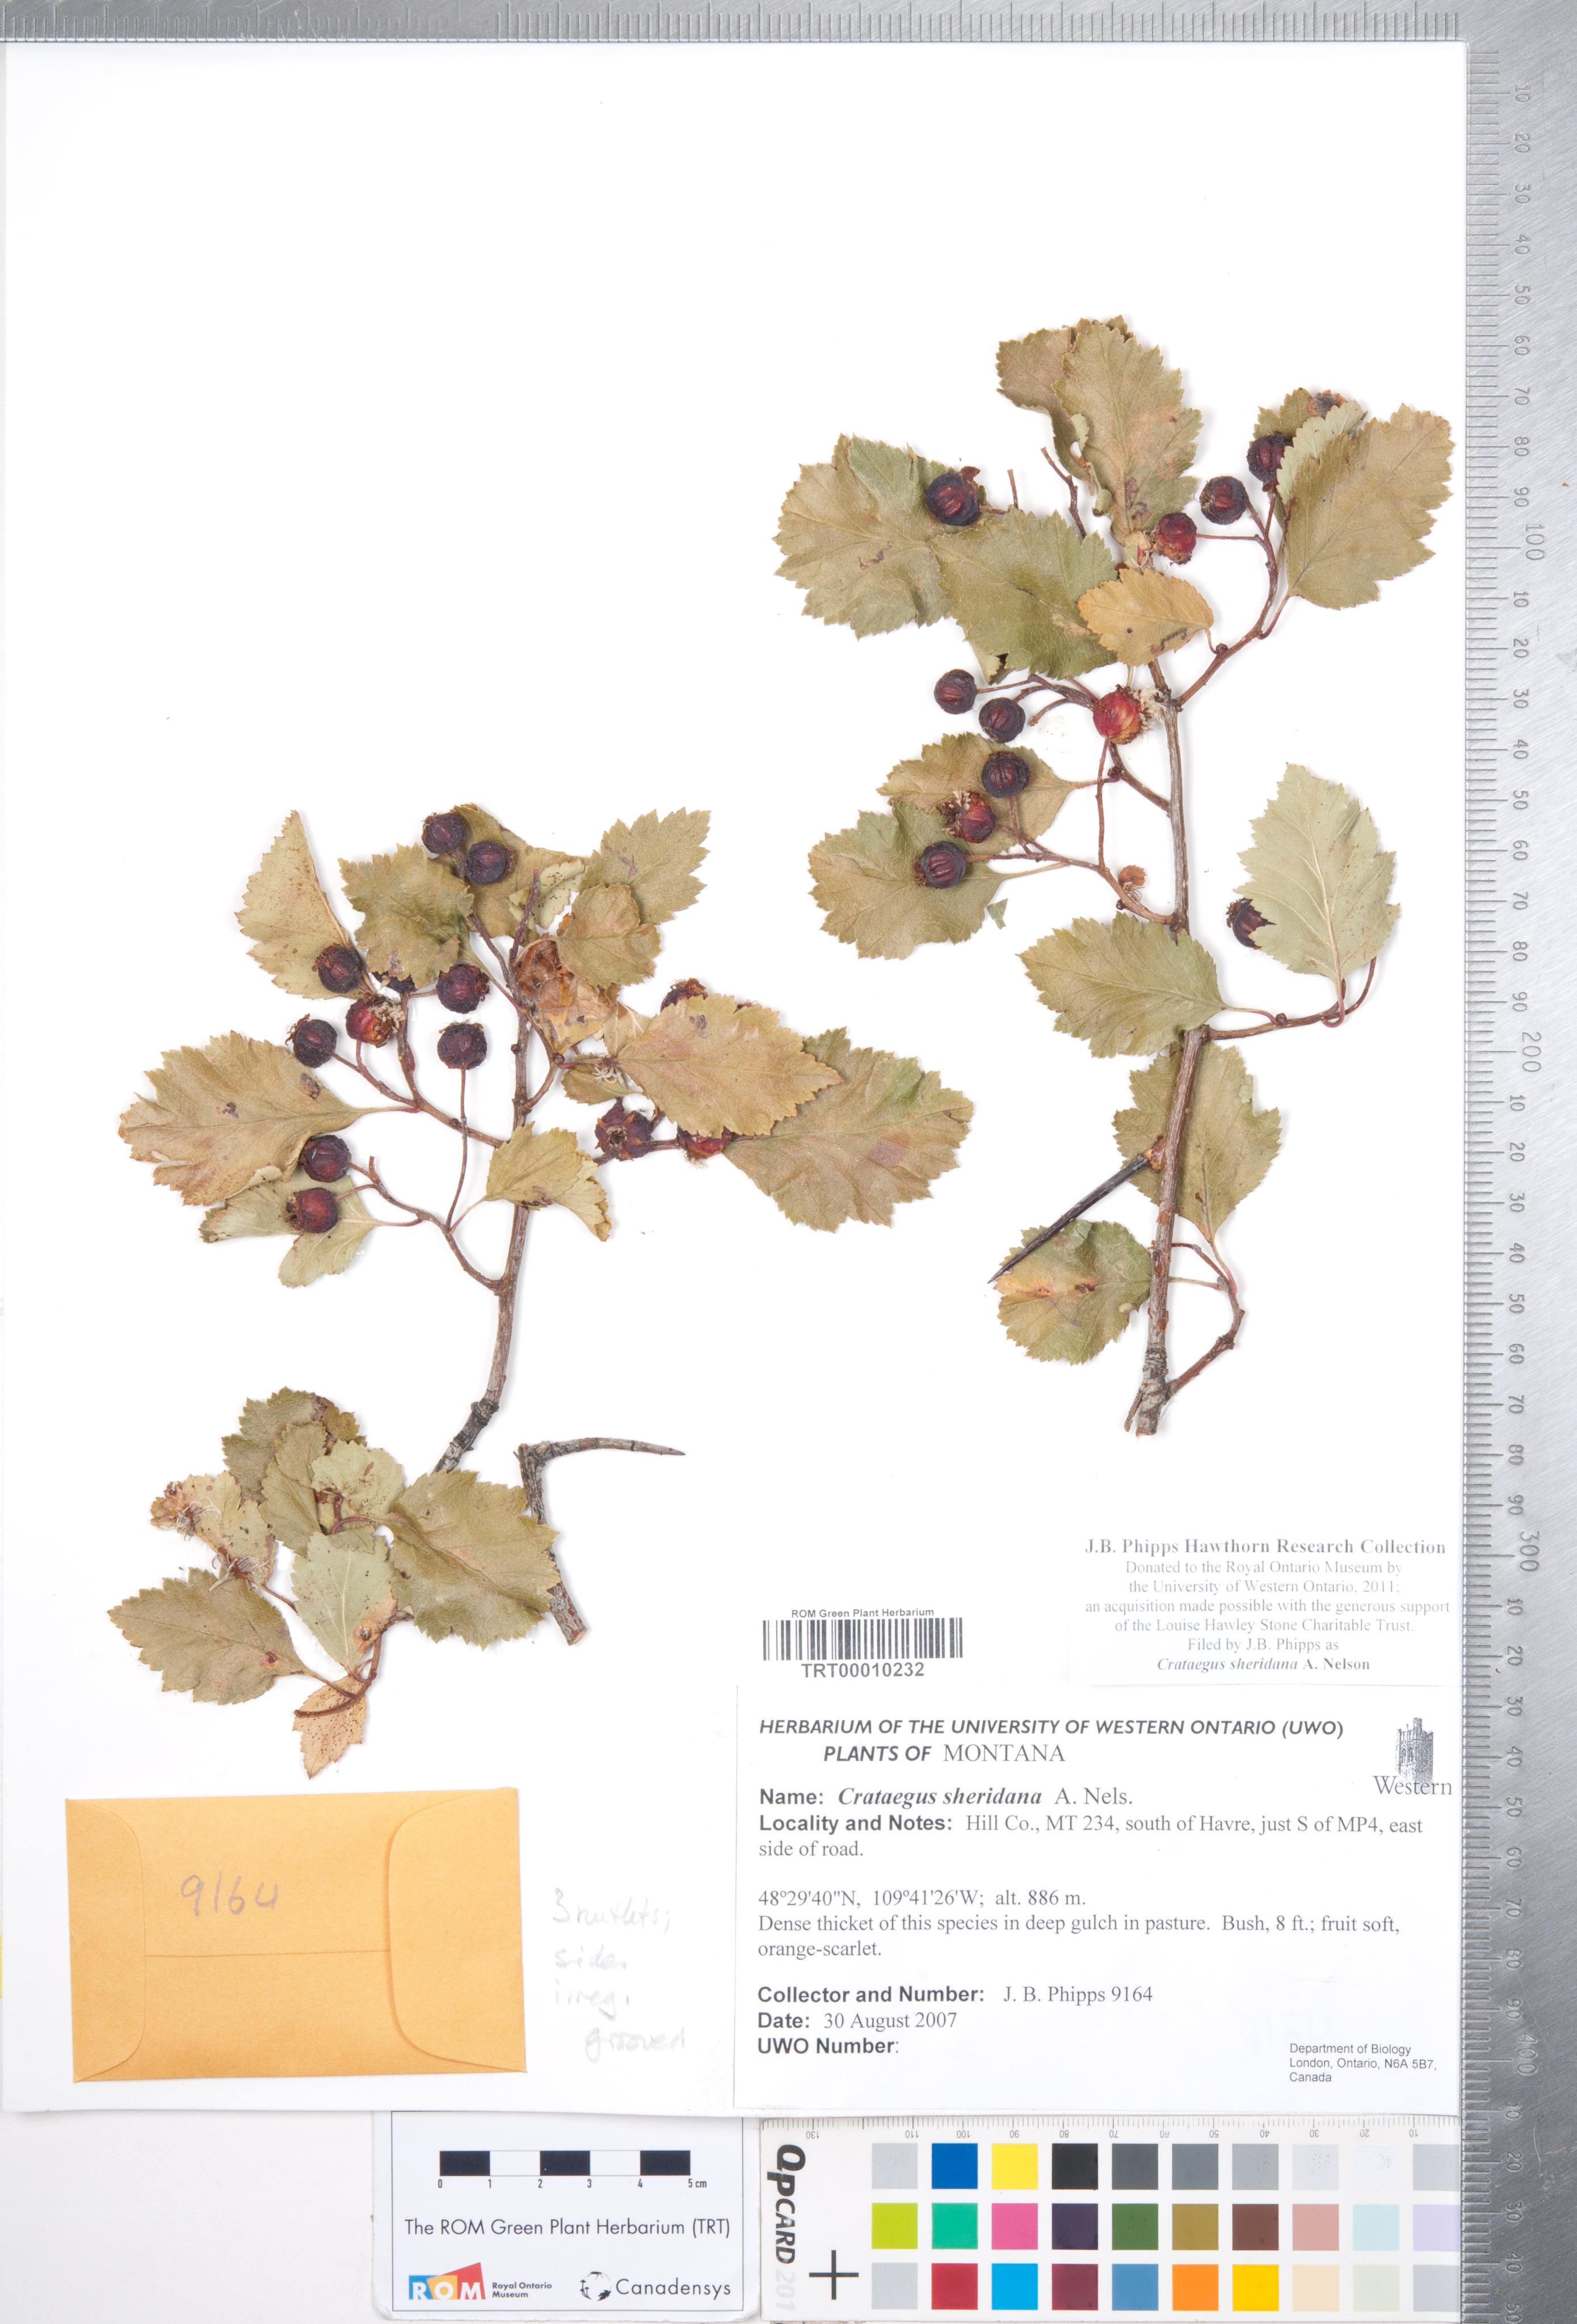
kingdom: Plantae
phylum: Tracheophyta
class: Magnoliopsida
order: Rosales
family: Rosaceae
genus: Crataegus
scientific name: Crataegus chrysocarpa
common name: Fire-berry hawthorn
